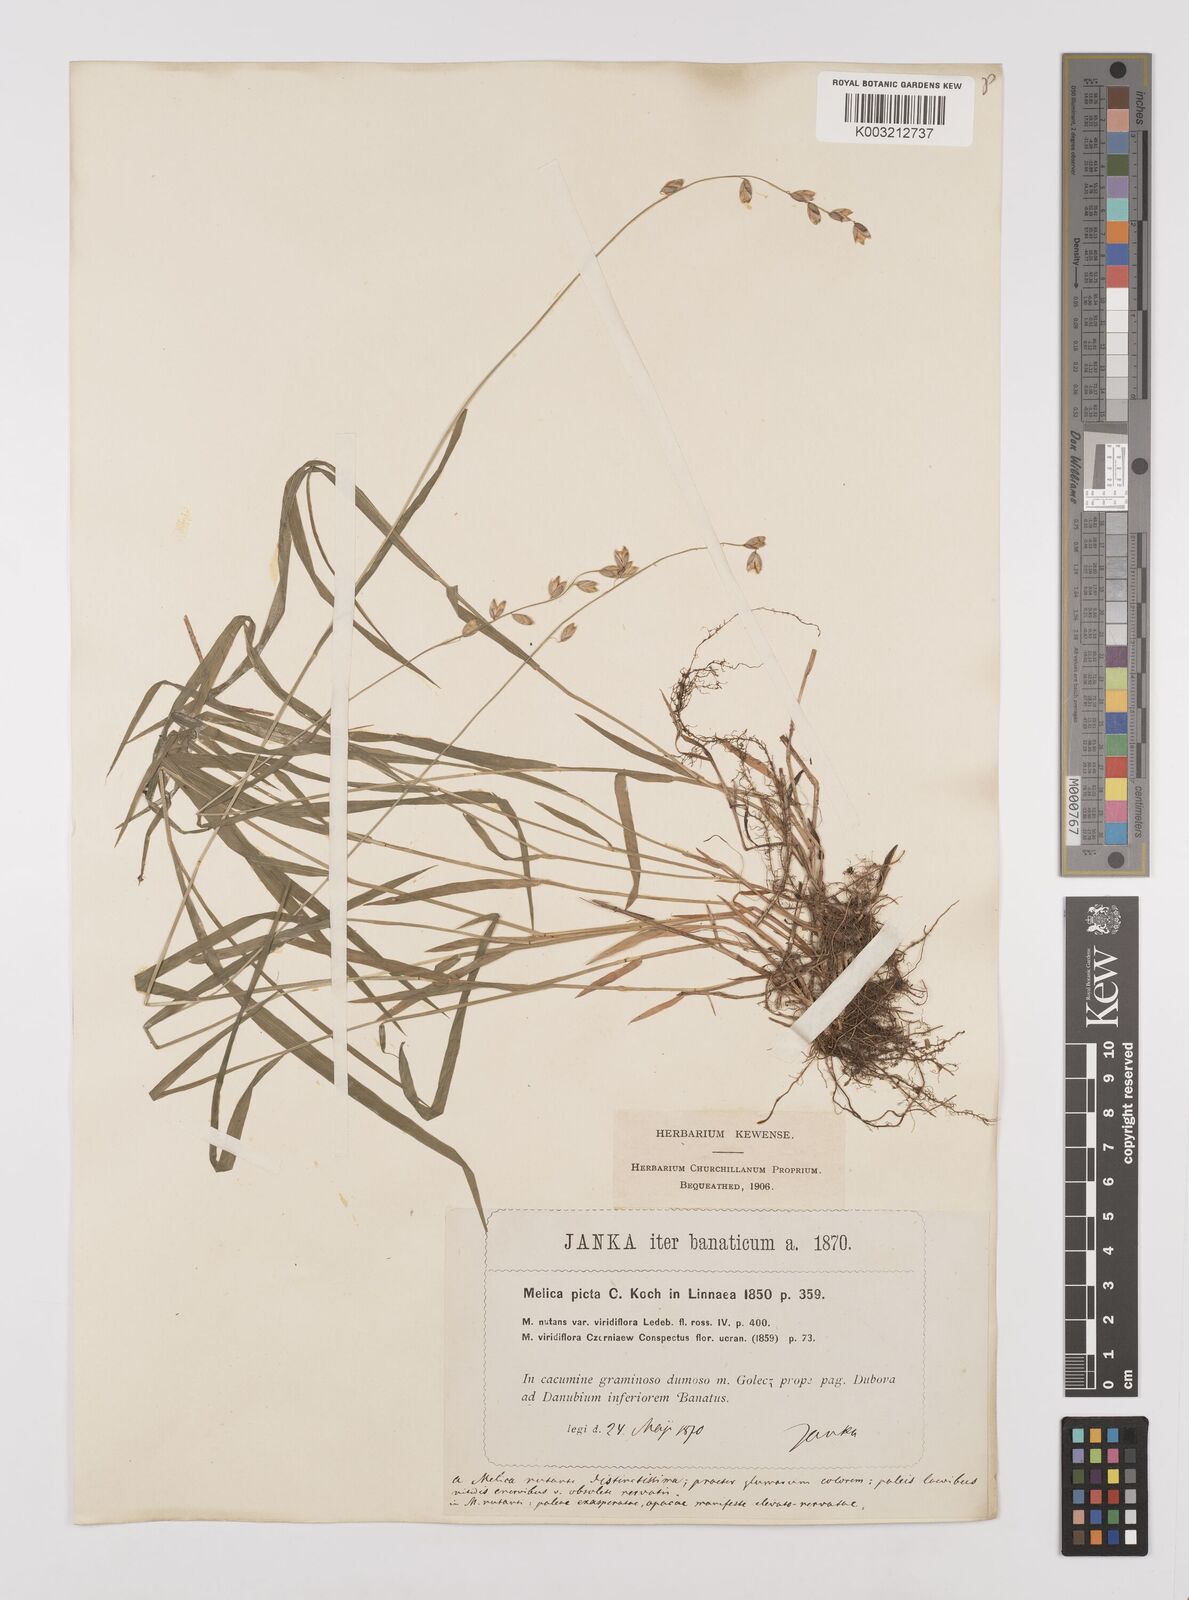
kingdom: Plantae
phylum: Tracheophyta
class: Liliopsida
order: Poales
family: Poaceae
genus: Melica
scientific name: Melica picta
